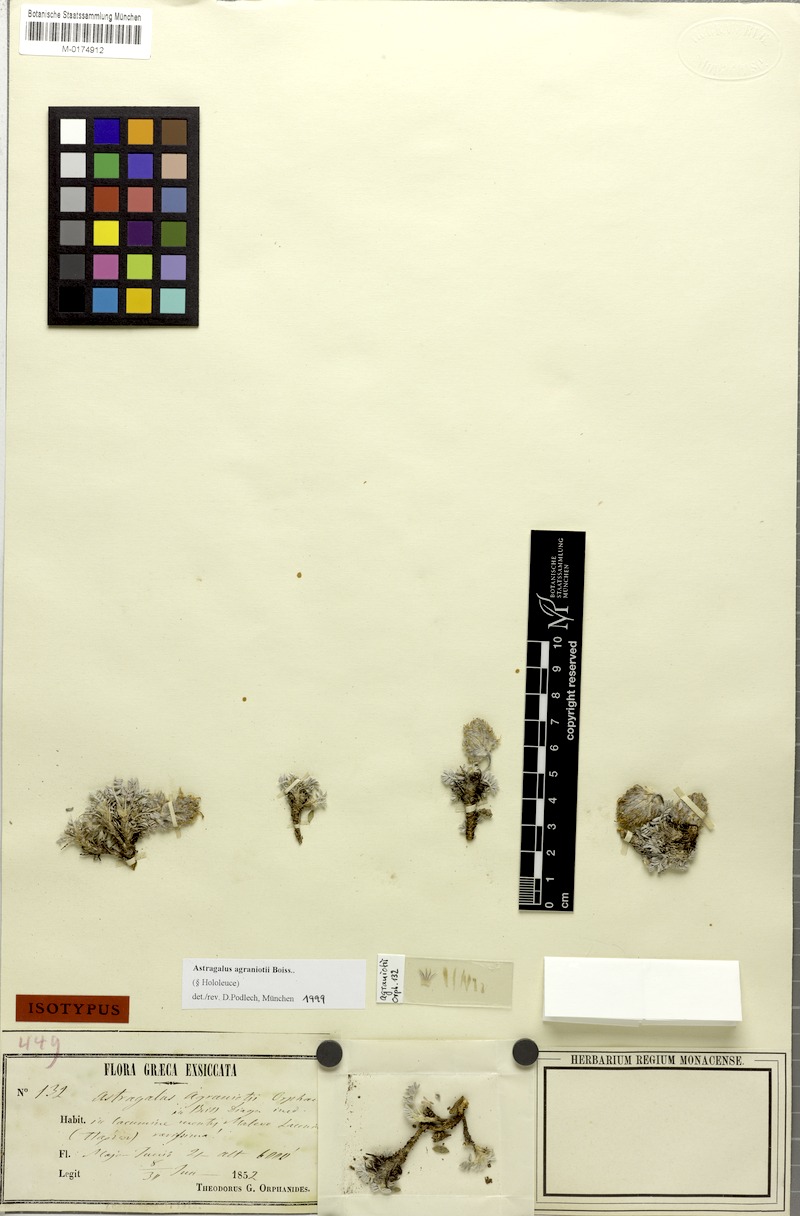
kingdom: Plantae
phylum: Tracheophyta
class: Magnoliopsida
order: Fabales
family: Fabaceae
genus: Astragalus
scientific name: Astragalus agraniotii
